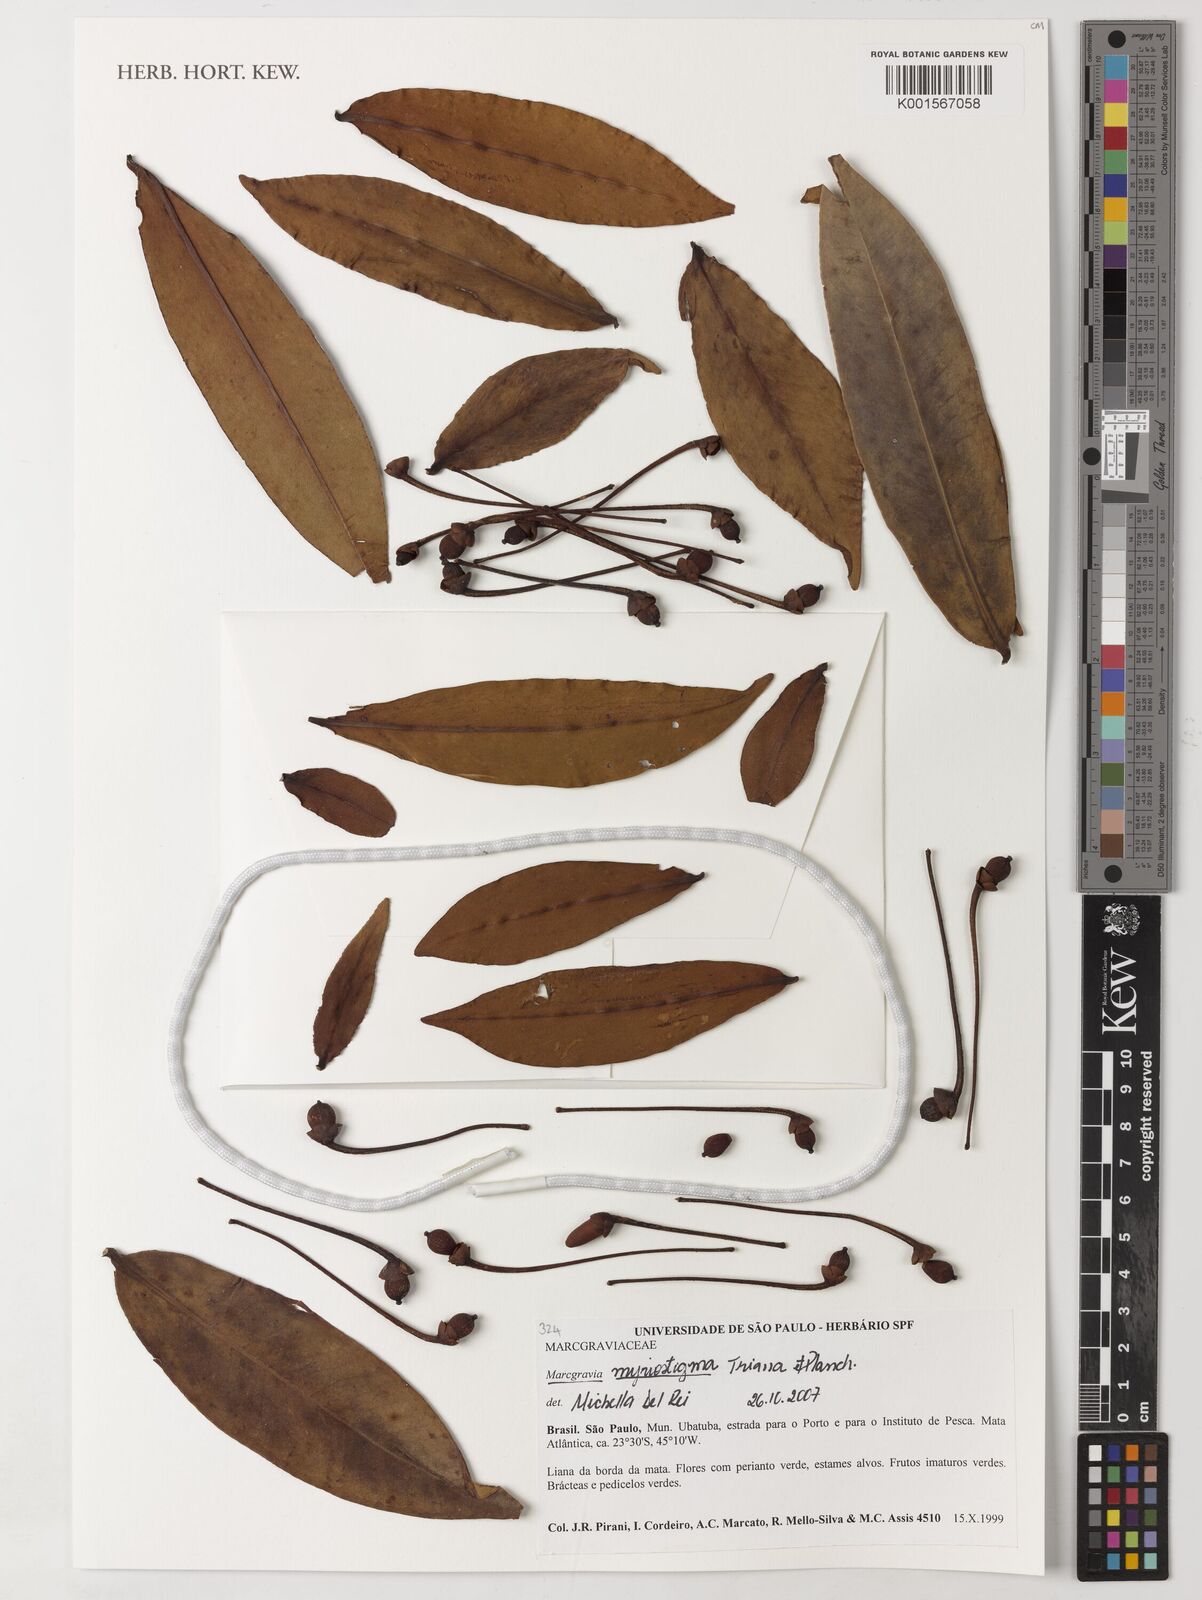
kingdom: Plantae
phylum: Tracheophyta
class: Magnoliopsida
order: Ericales
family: Marcgraviaceae
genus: Marcgravia
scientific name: Marcgravia myriostigma
